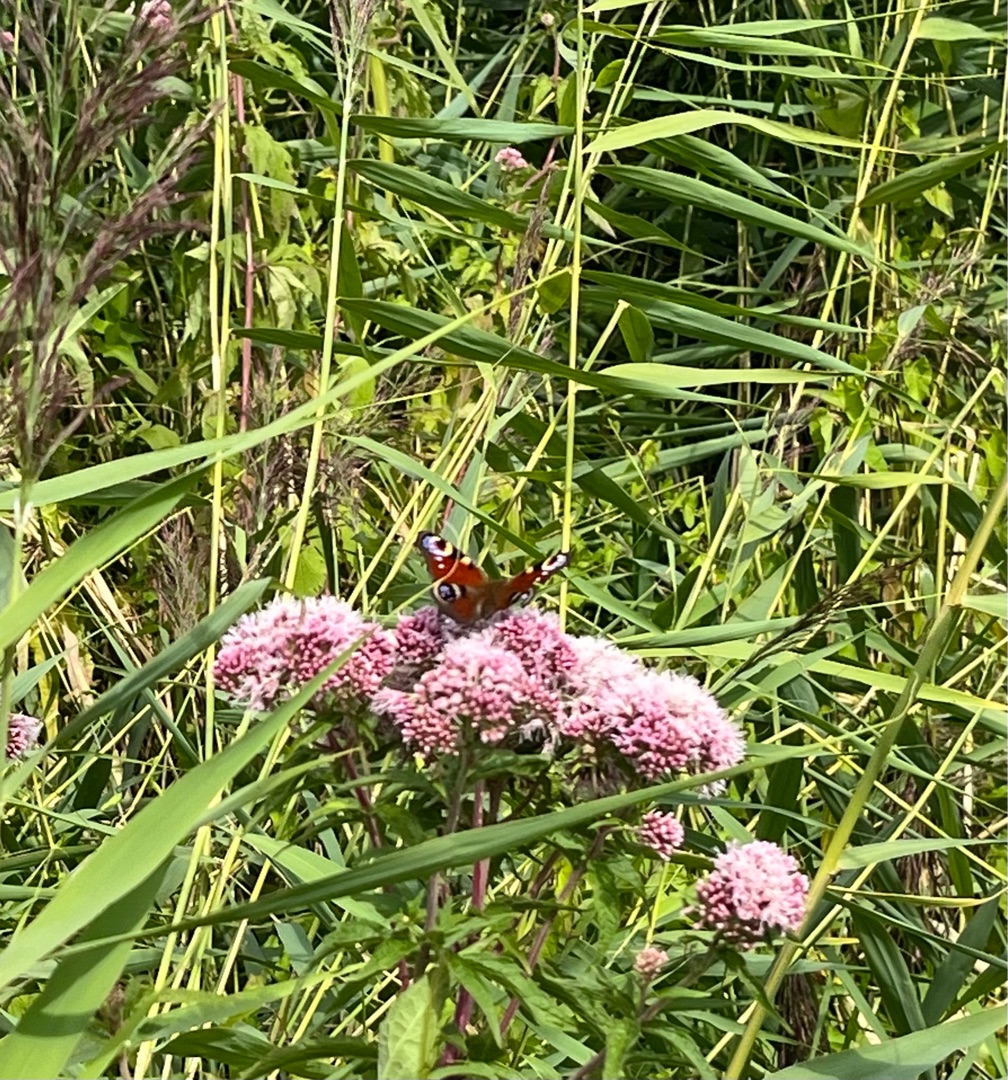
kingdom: Animalia
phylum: Arthropoda
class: Insecta
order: Lepidoptera
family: Nymphalidae
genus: Aglais
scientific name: Aglais io
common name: Dagpåfugleøje
